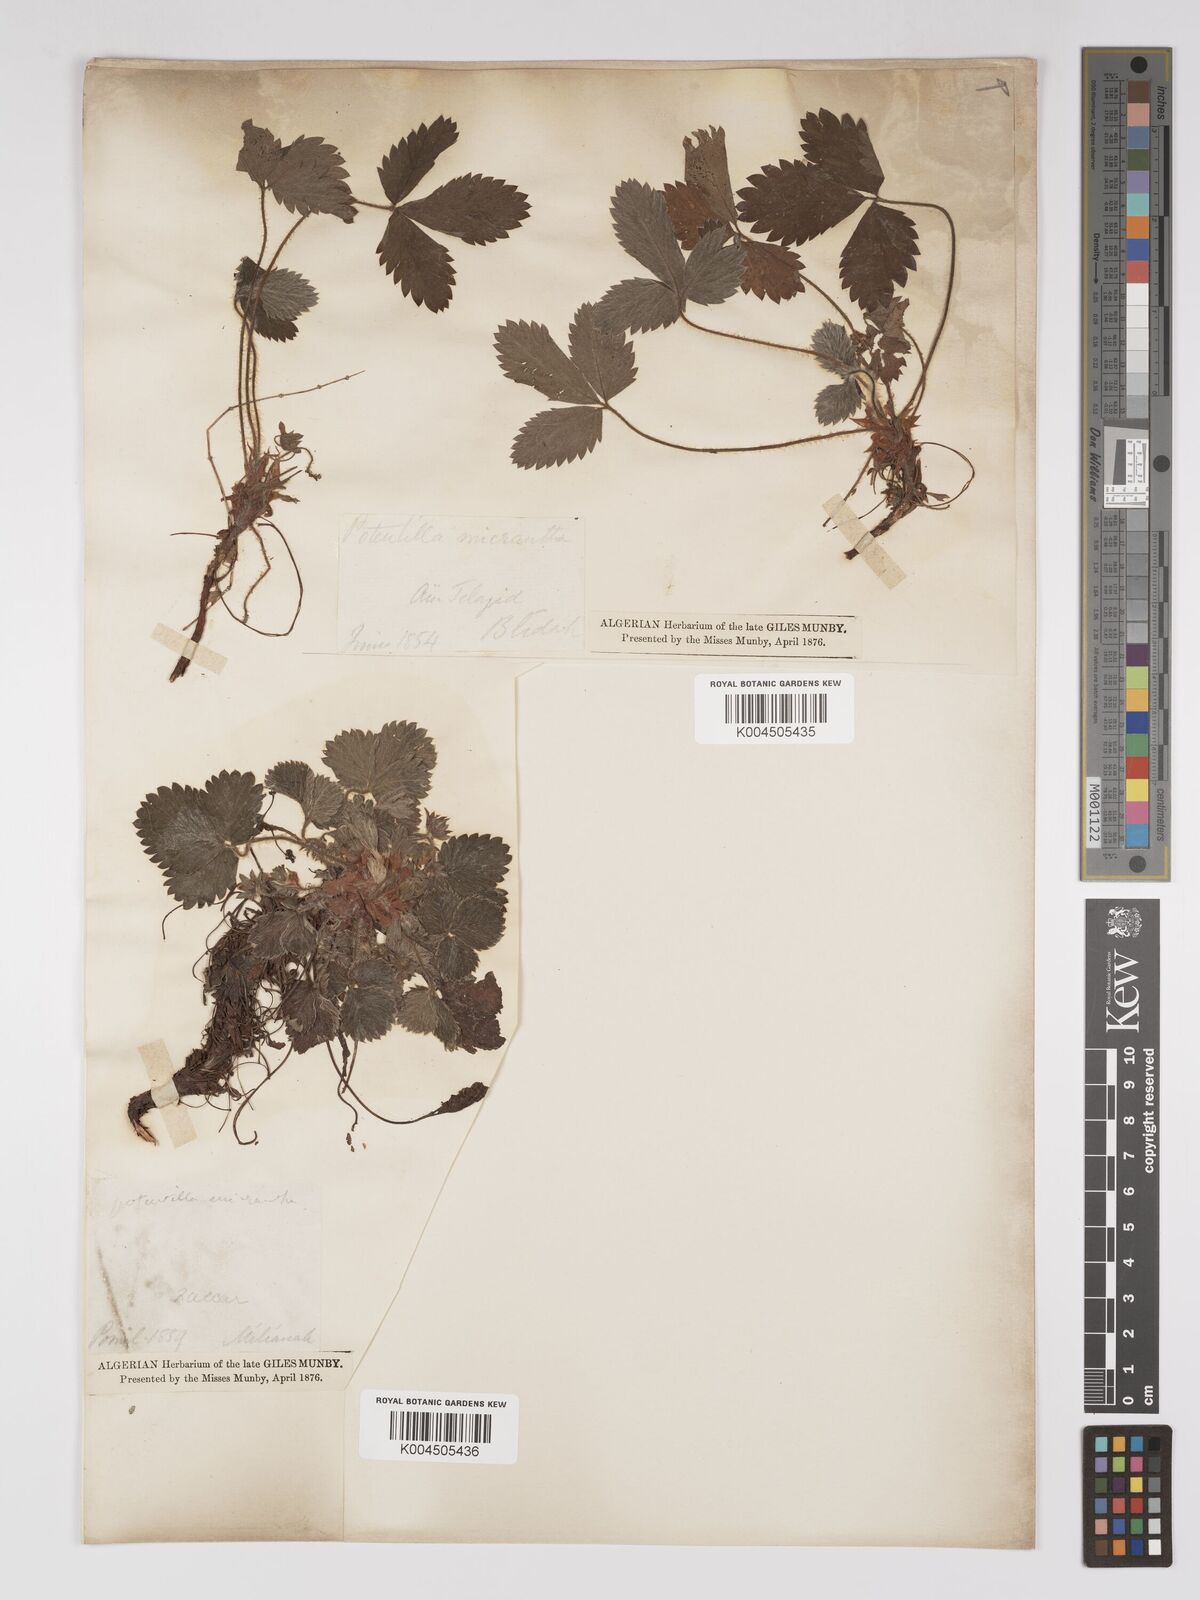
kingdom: Plantae
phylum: Tracheophyta
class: Magnoliopsida
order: Rosales
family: Rosaceae
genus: Potentilla
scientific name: Potentilla micrantha
